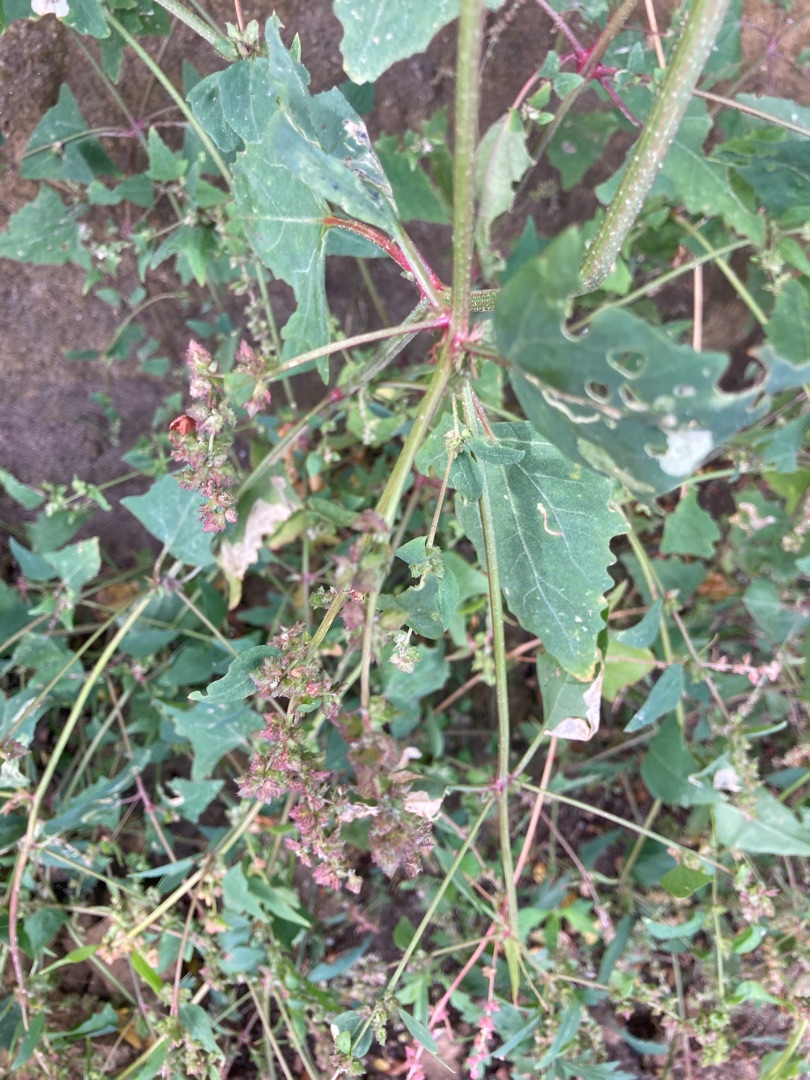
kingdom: Plantae
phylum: Tracheophyta
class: Magnoliopsida
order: Caryophyllales
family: Amaranthaceae
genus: Atriplex
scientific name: Atriplex prostrata
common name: Spyd-mælde
